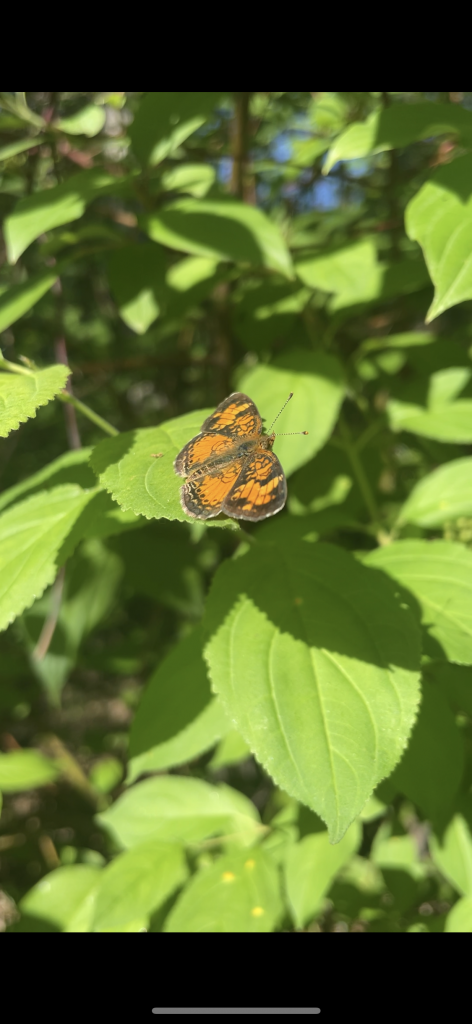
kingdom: Animalia
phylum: Arthropoda
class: Insecta
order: Lepidoptera
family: Nymphalidae
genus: Phyciodes
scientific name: Phyciodes tharos
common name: Northern Crescent
